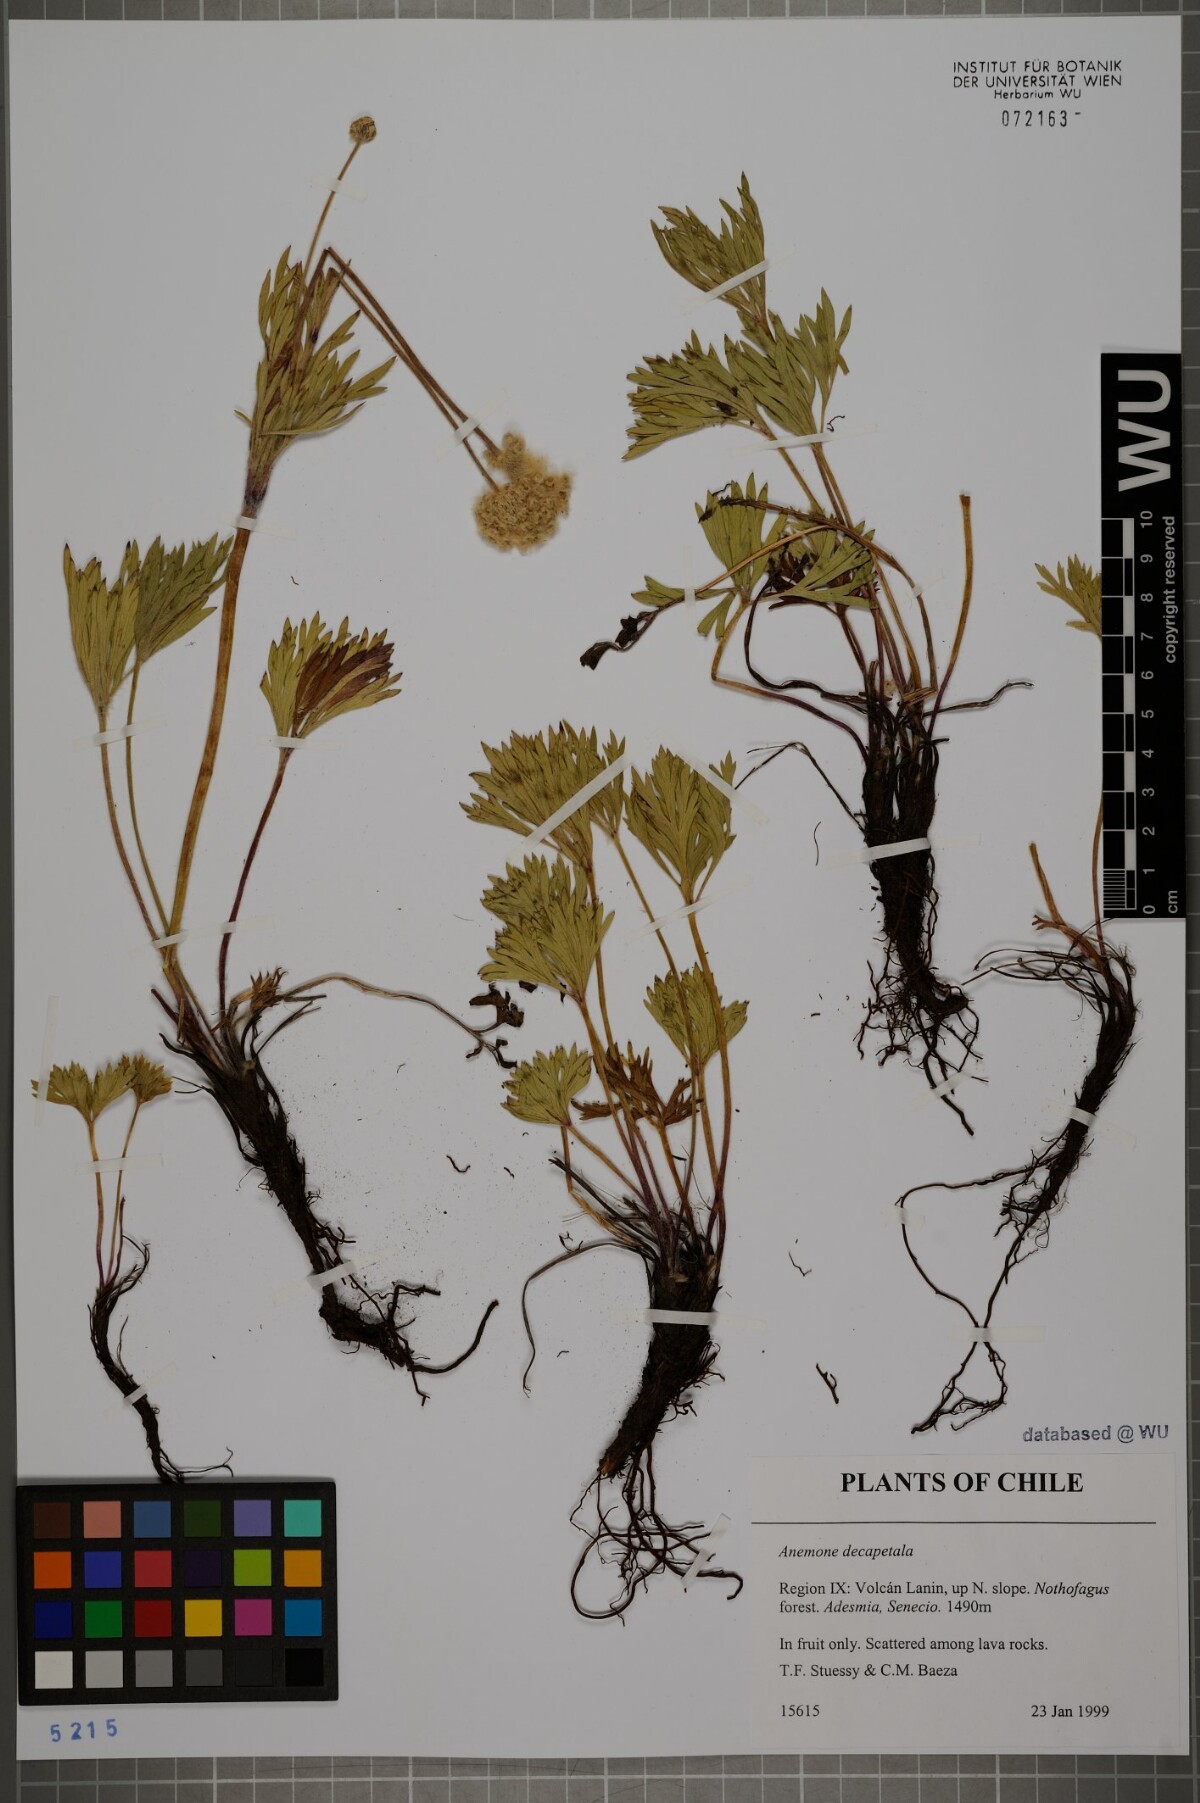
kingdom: Plantae
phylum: Tracheophyta
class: Magnoliopsida
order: Ranunculales
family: Ranunculaceae
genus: Anemone
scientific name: Anemone decapetala
